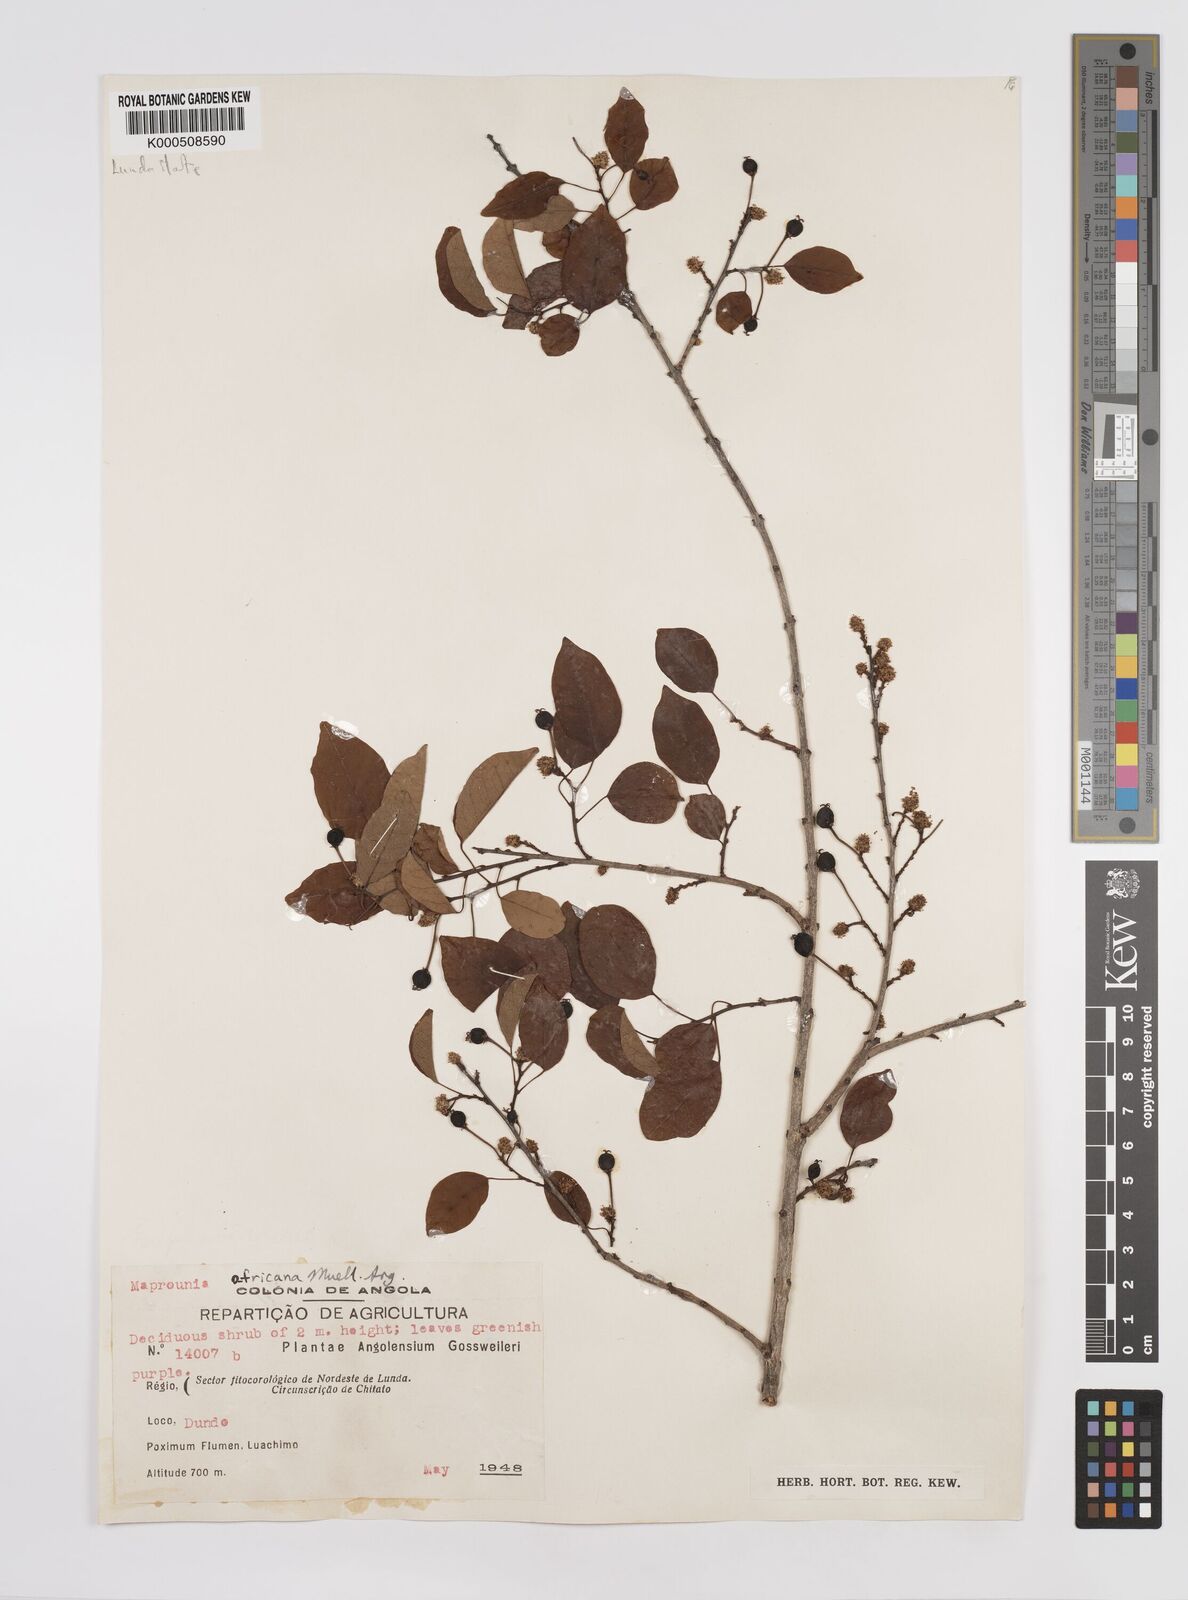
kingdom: Plantae
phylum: Tracheophyta
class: Magnoliopsida
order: Malpighiales
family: Euphorbiaceae
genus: Maprounea
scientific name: Maprounea
